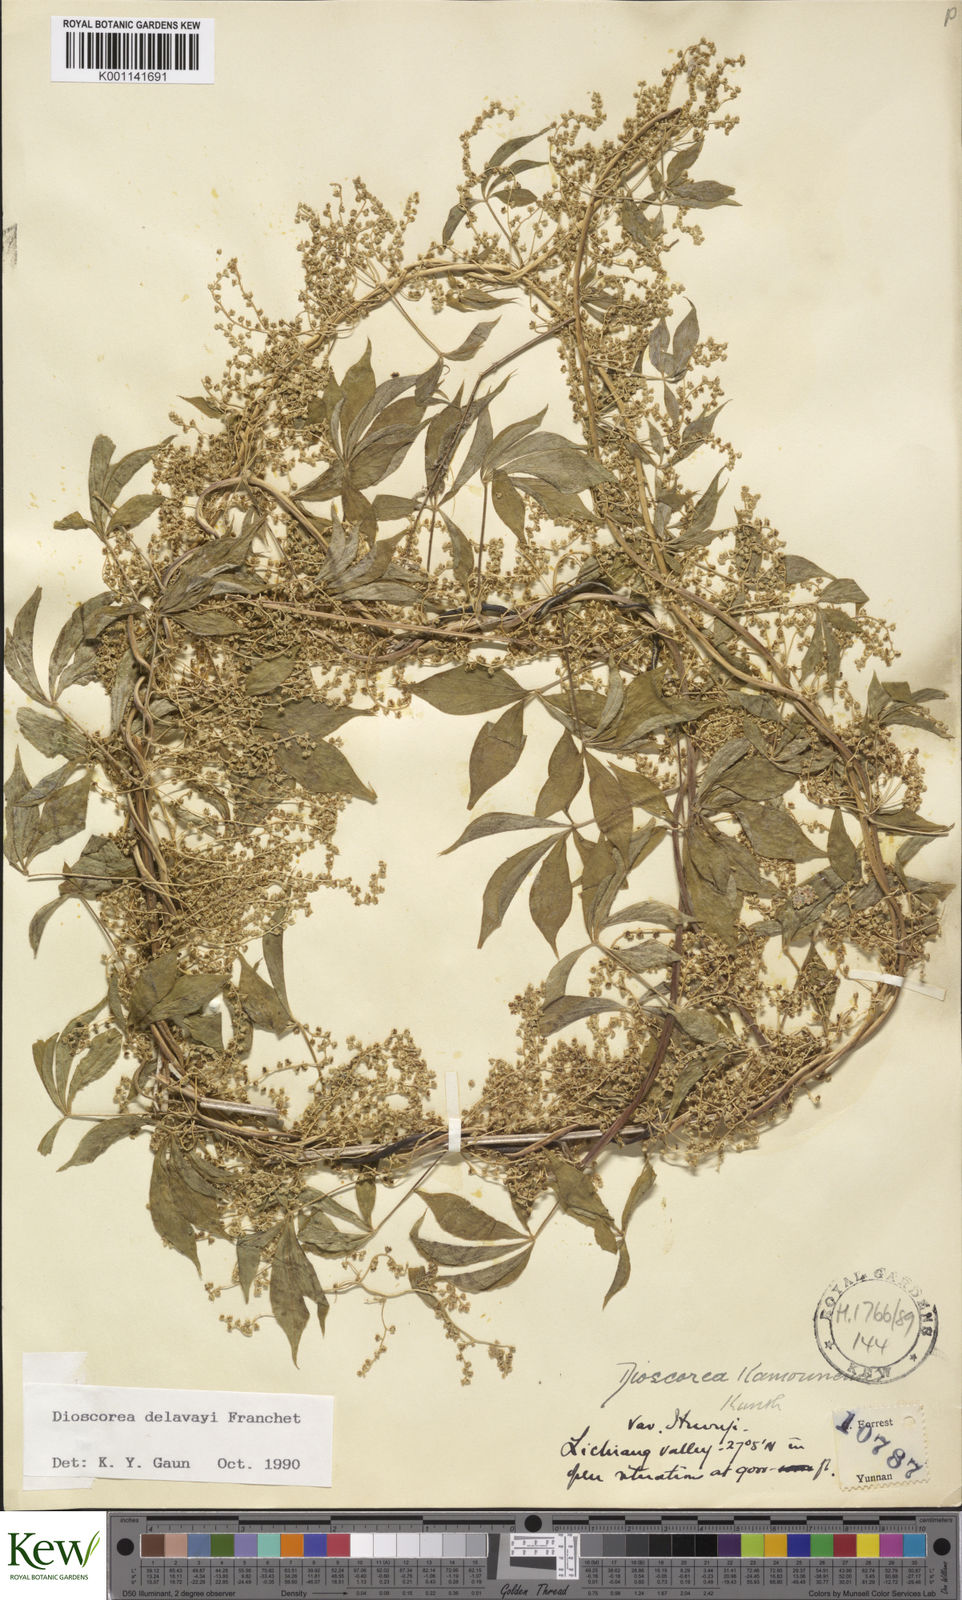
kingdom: Plantae
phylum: Tracheophyta
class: Liliopsida
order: Dioscoreales
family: Dioscoreaceae
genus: Dioscorea
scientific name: Dioscorea kamoonensis
